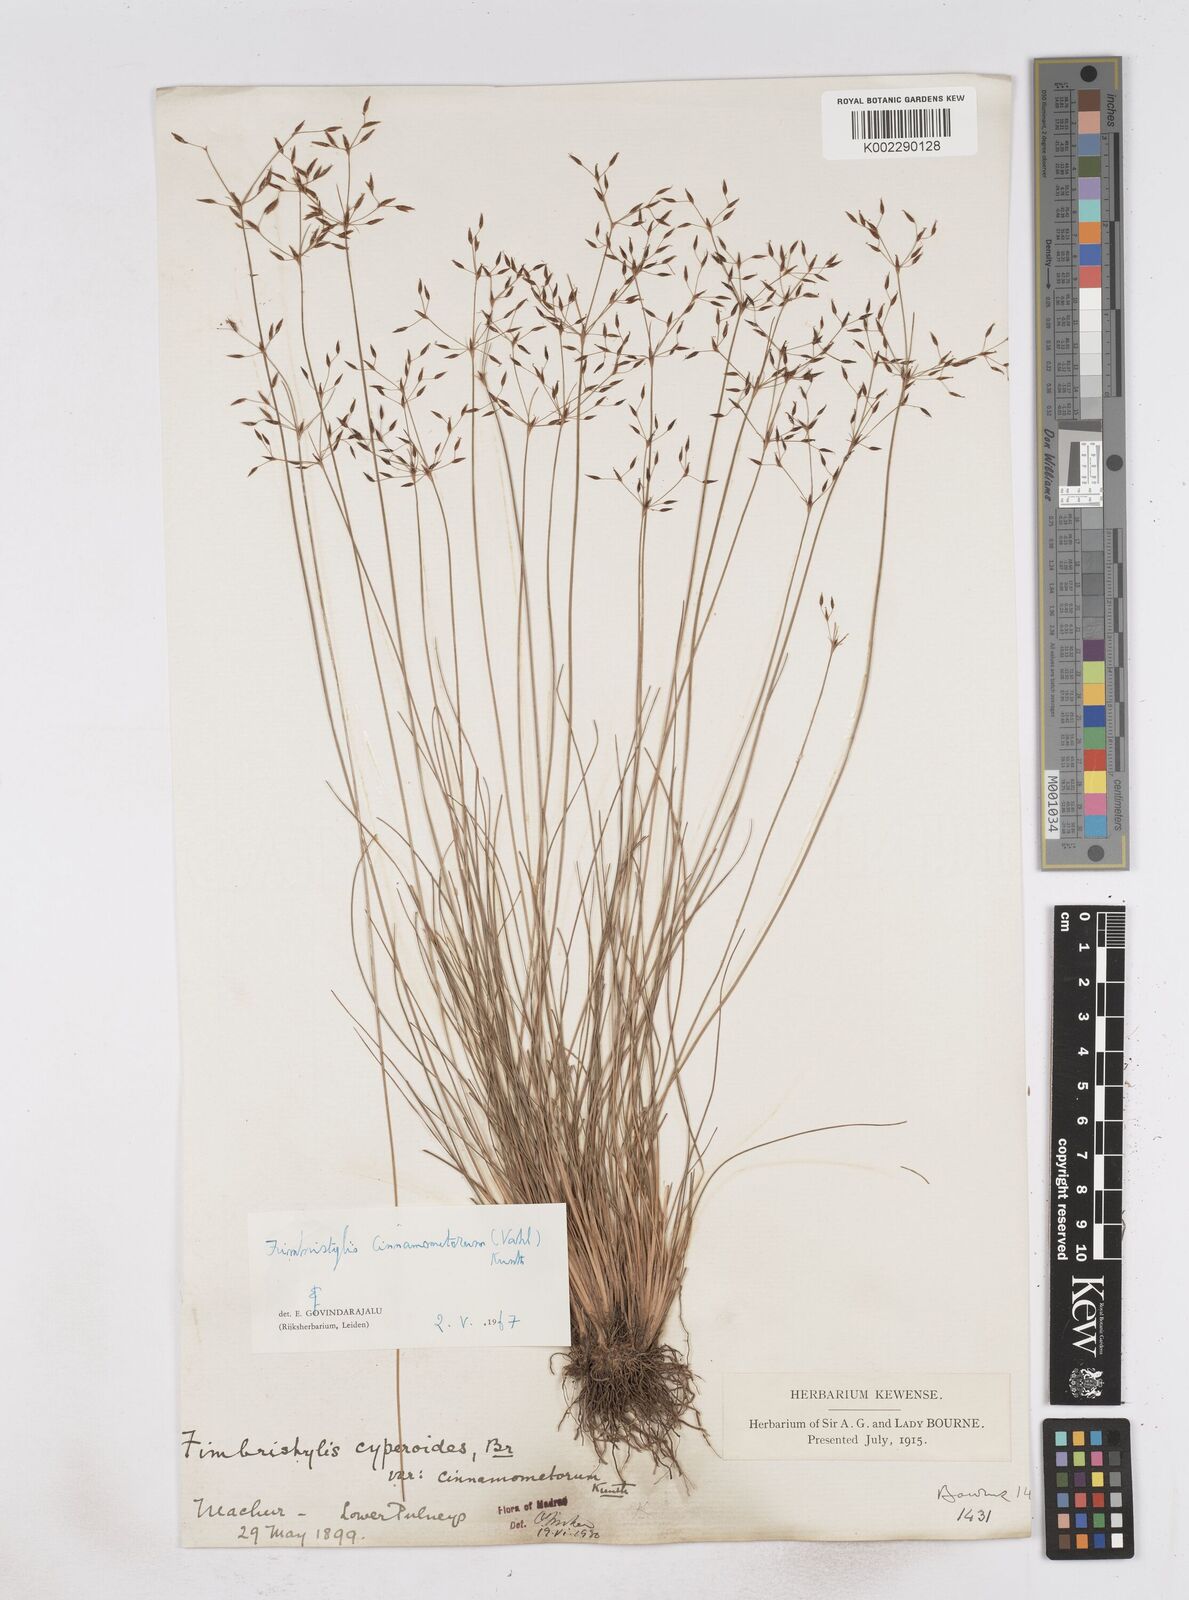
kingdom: Plantae
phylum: Tracheophyta
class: Liliopsida
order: Poales
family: Cyperaceae
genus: Fimbristylis
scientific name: Fimbristylis cinnamometorum
